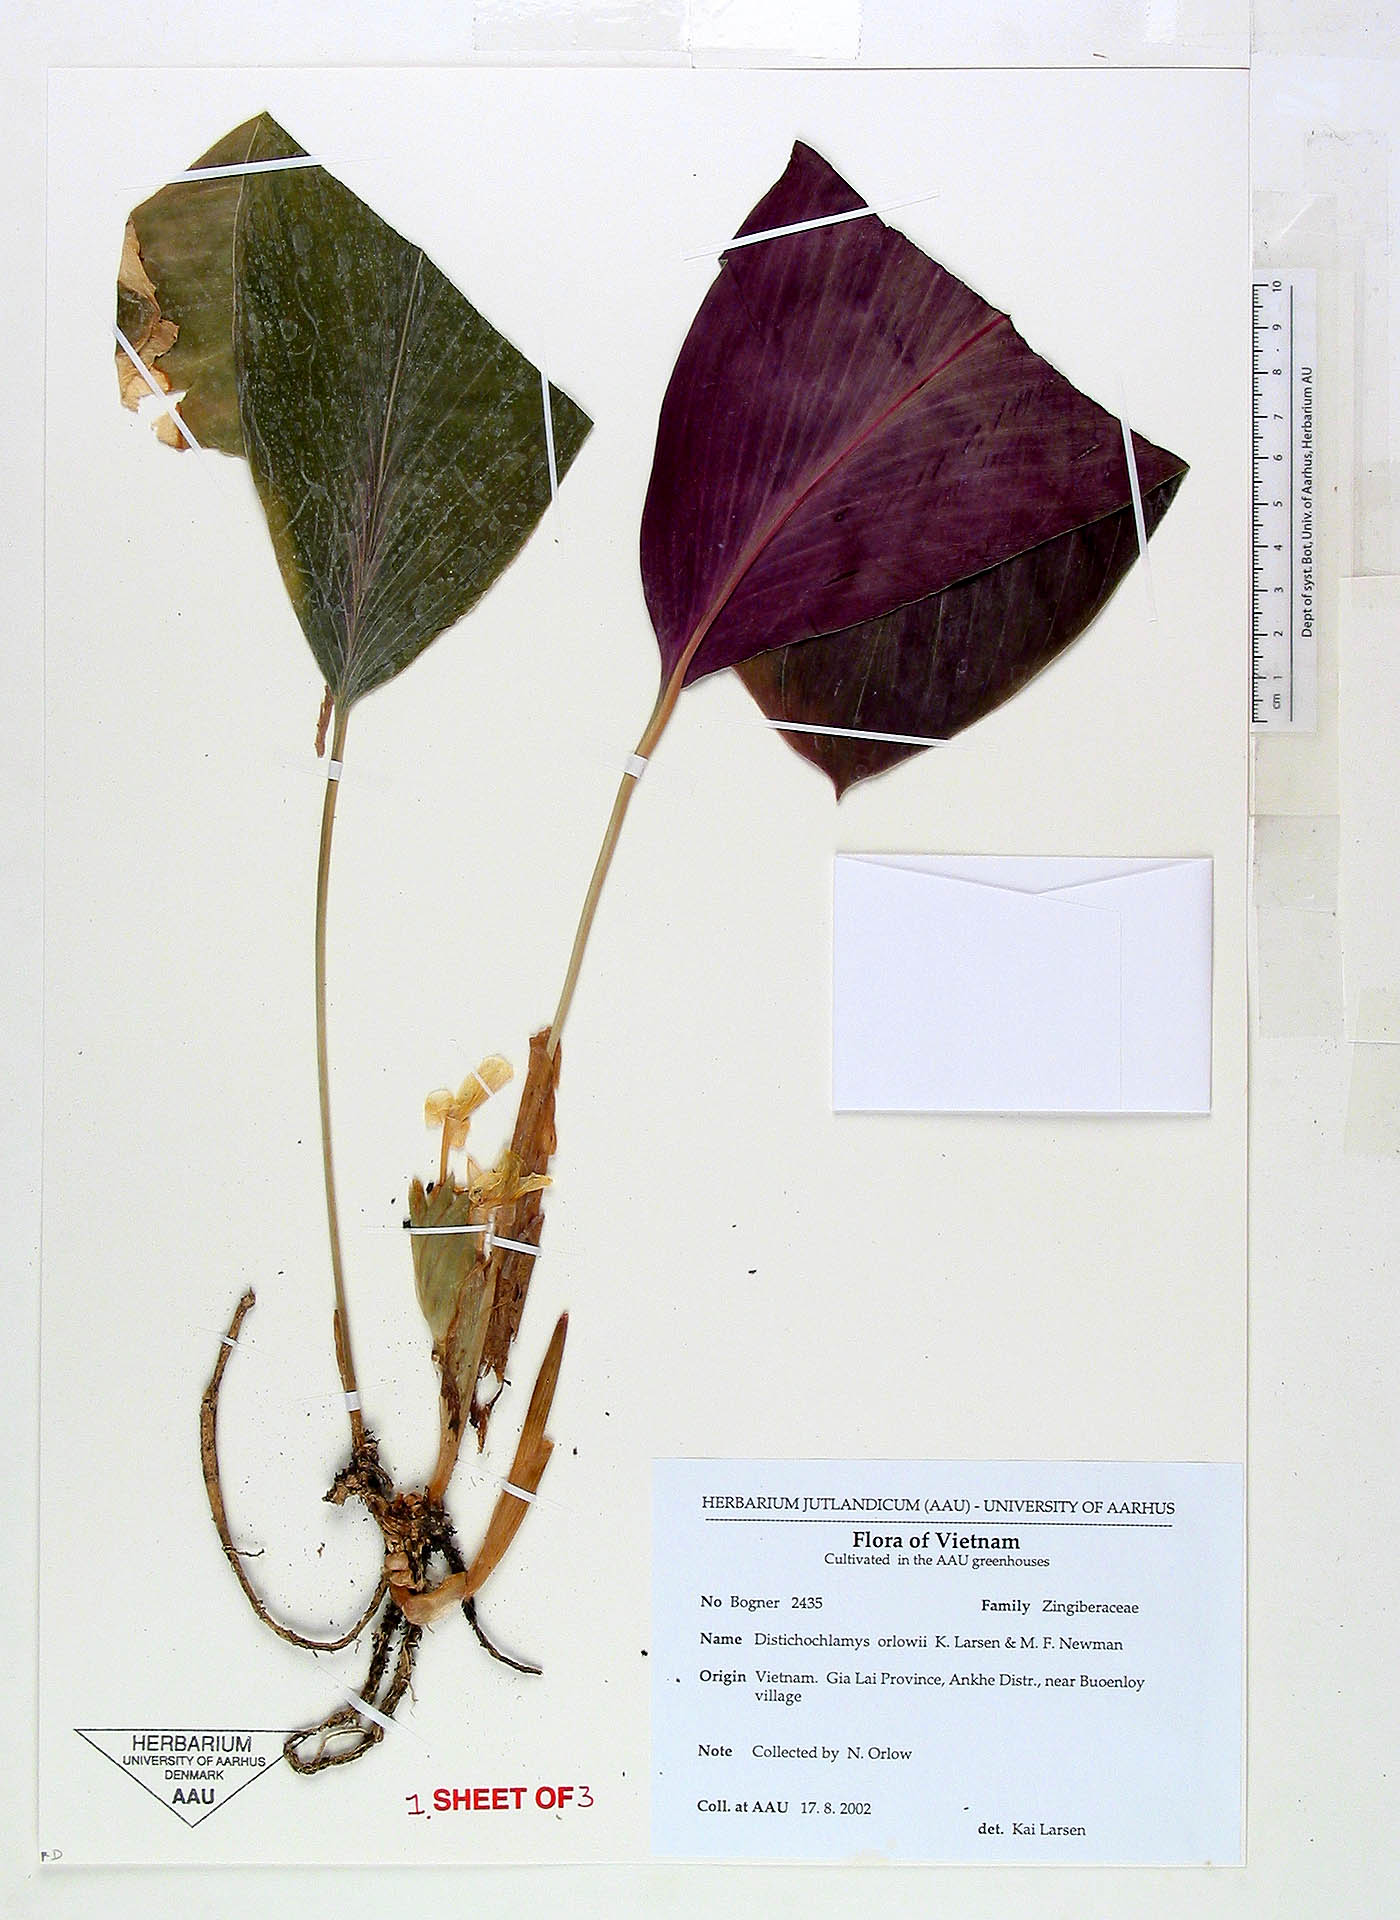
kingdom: Plantae
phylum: Tracheophyta
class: Liliopsida
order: Zingiberales
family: Zingiberaceae
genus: Distichochlamys
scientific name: Distichochlamys orlowii
